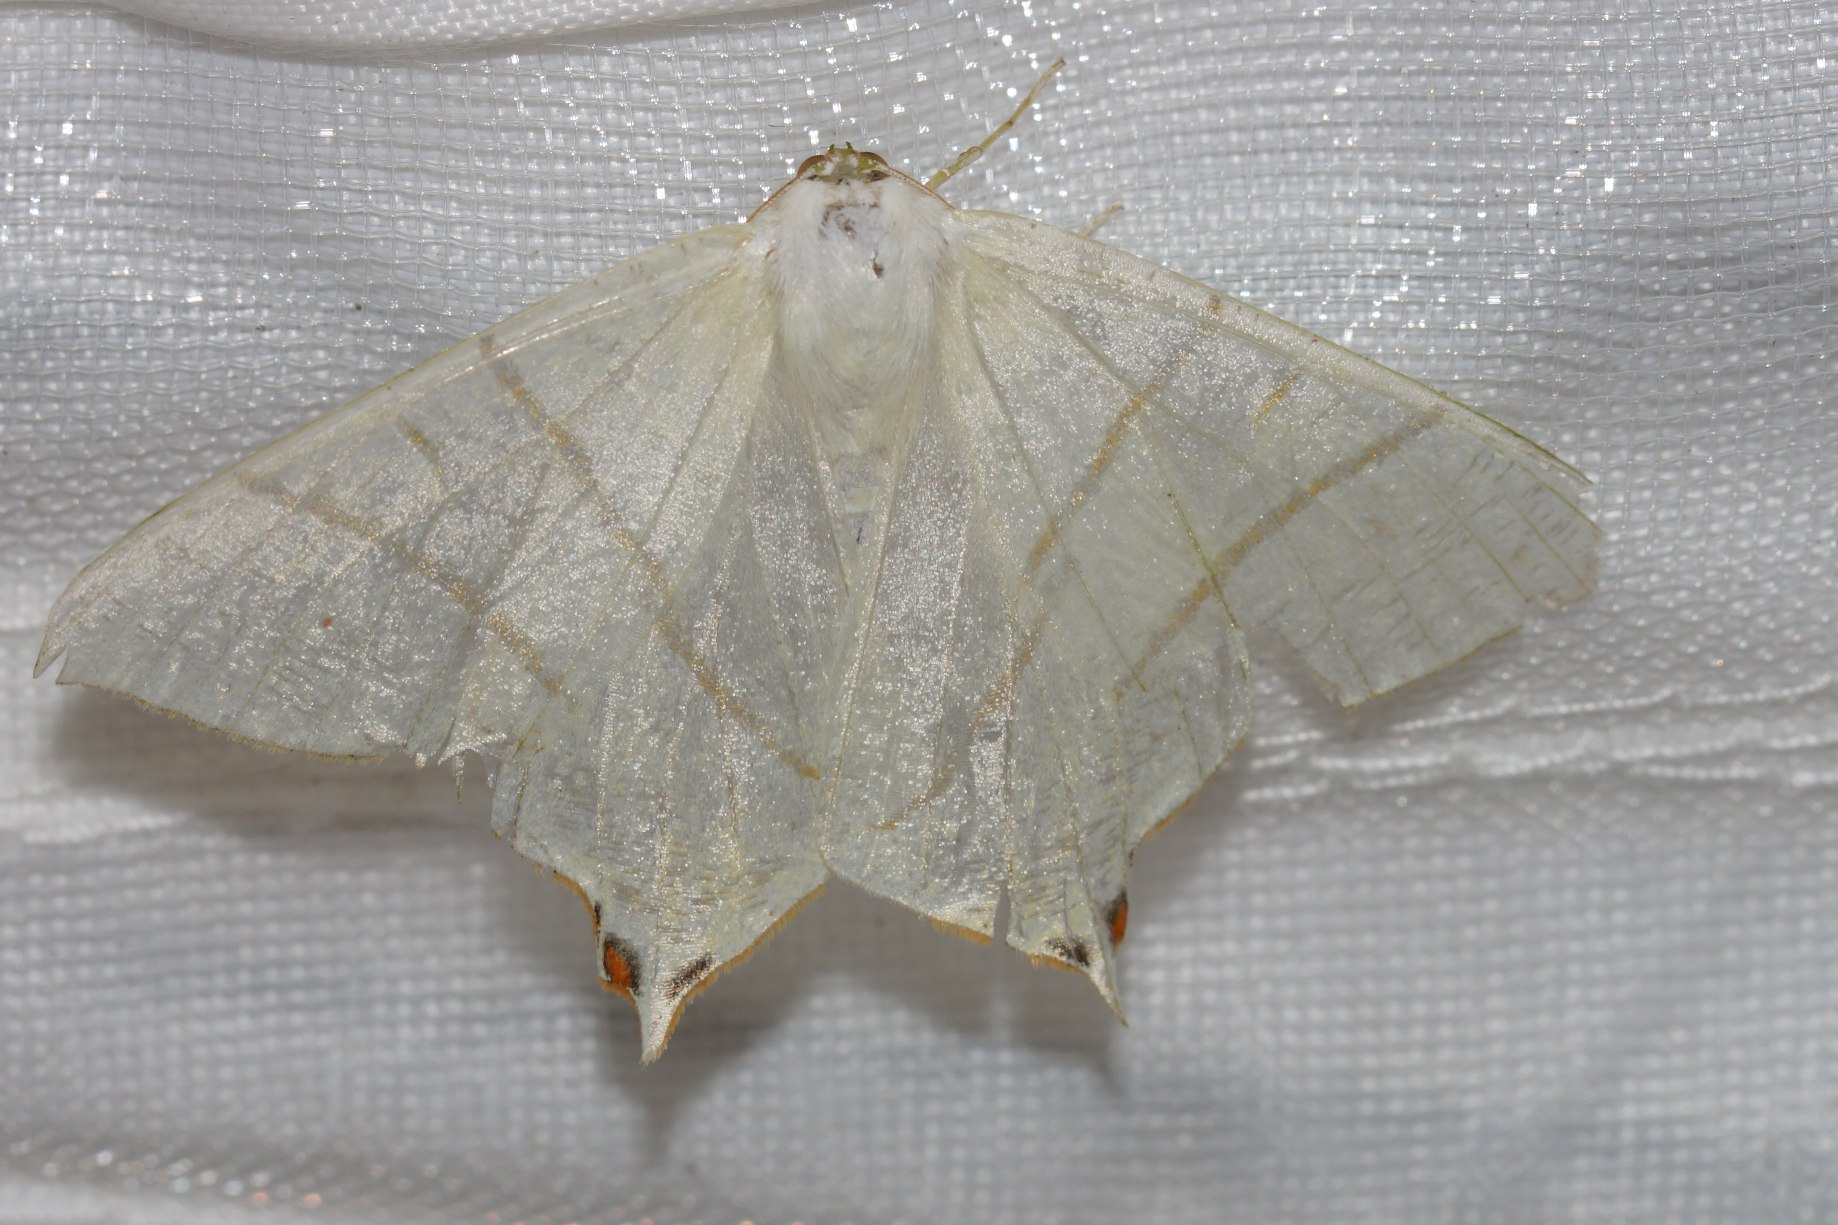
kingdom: Animalia
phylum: Arthropoda
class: Insecta
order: Lepidoptera
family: Geometridae
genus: Ourapteryx
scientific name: Ourapteryx sambucaria
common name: Natsvalehale
